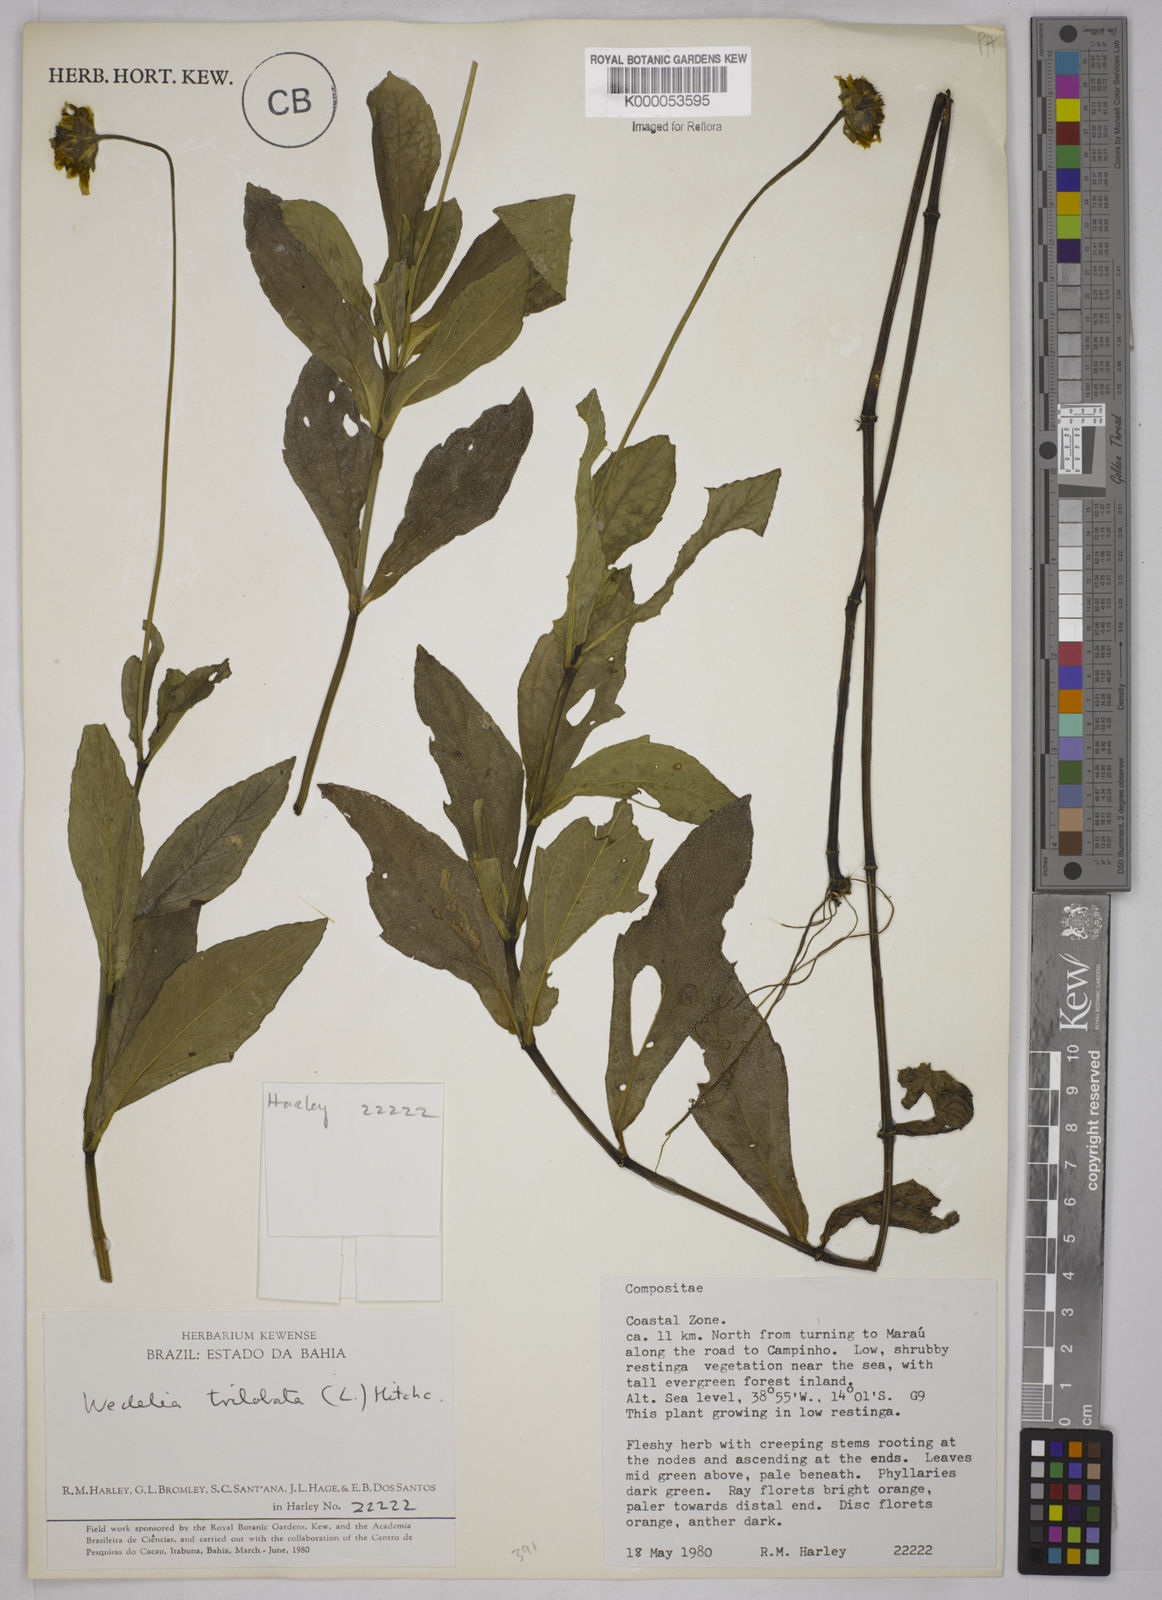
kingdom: Plantae
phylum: Tracheophyta
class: Magnoliopsida
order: Asterales
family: Asteraceae
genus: Sphagneticola
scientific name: Sphagneticola trilobata
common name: Bay biscayne creeping-oxeye
